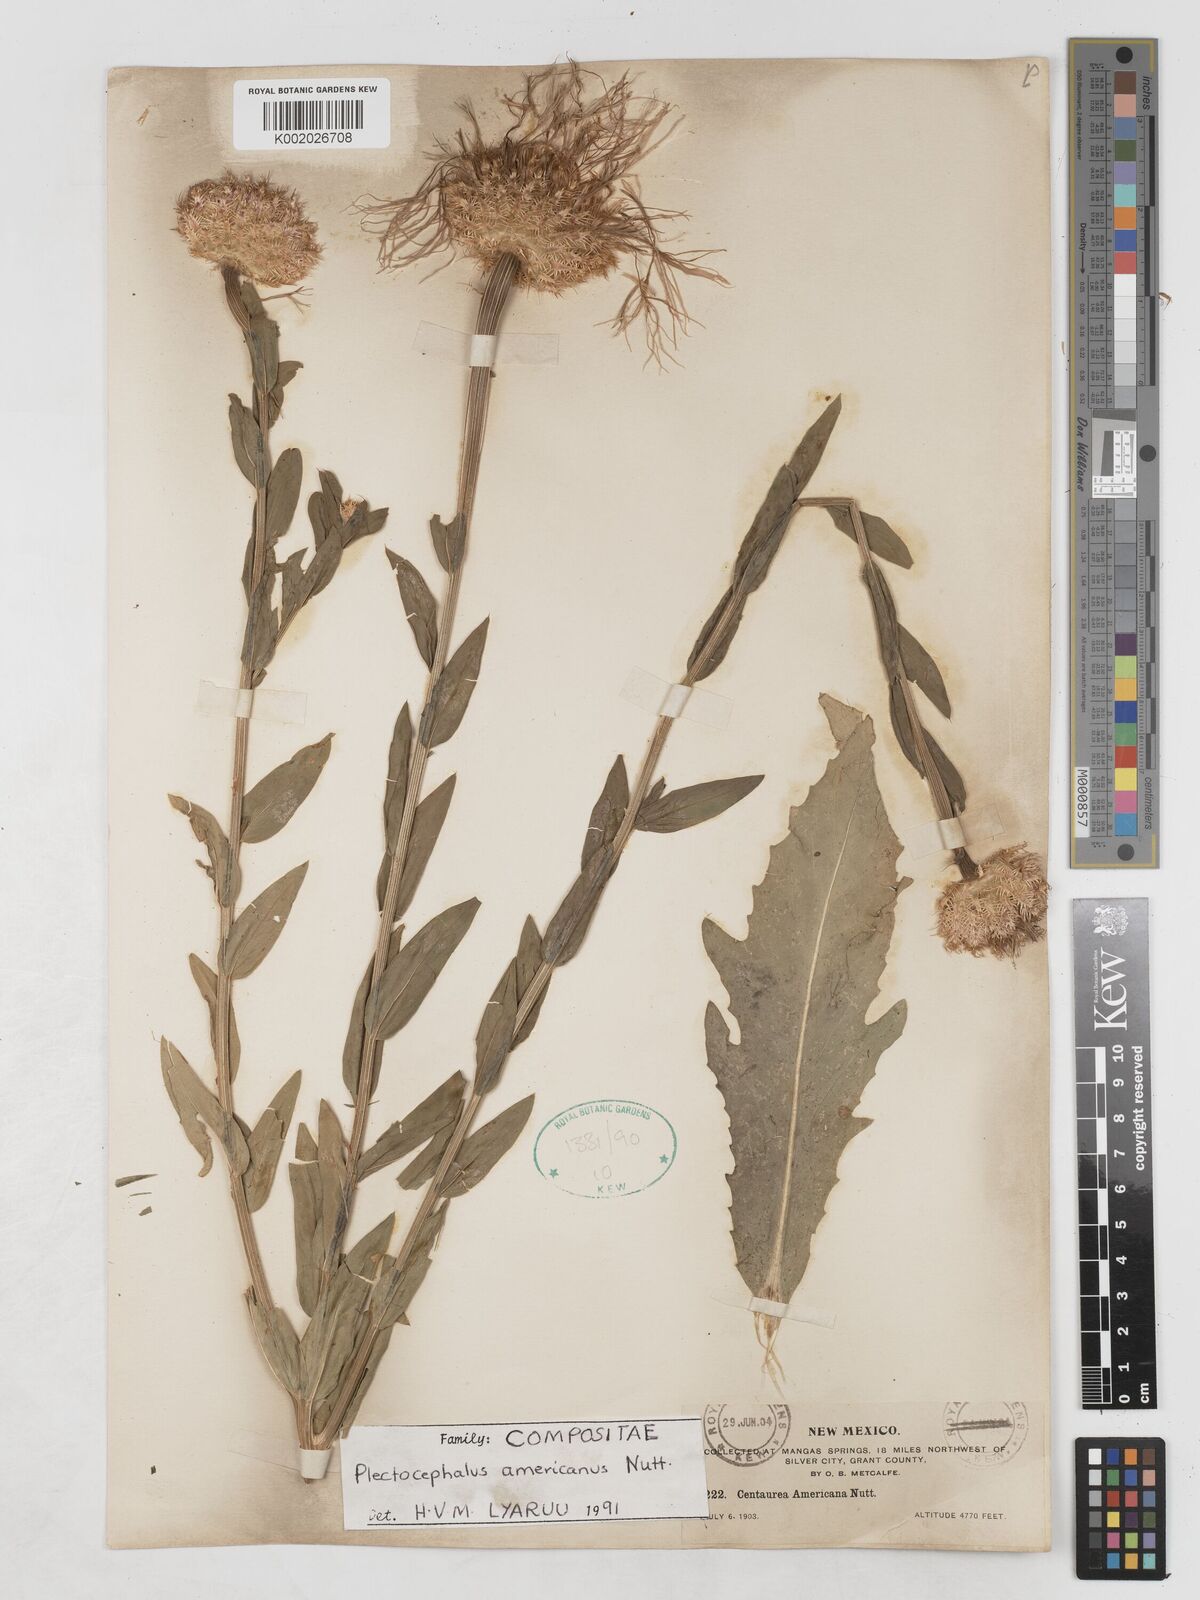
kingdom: Plantae
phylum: Tracheophyta
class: Magnoliopsida
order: Asterales
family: Asteraceae
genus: Plectocephalus
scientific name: Plectocephalus americanus
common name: American basket-flower
